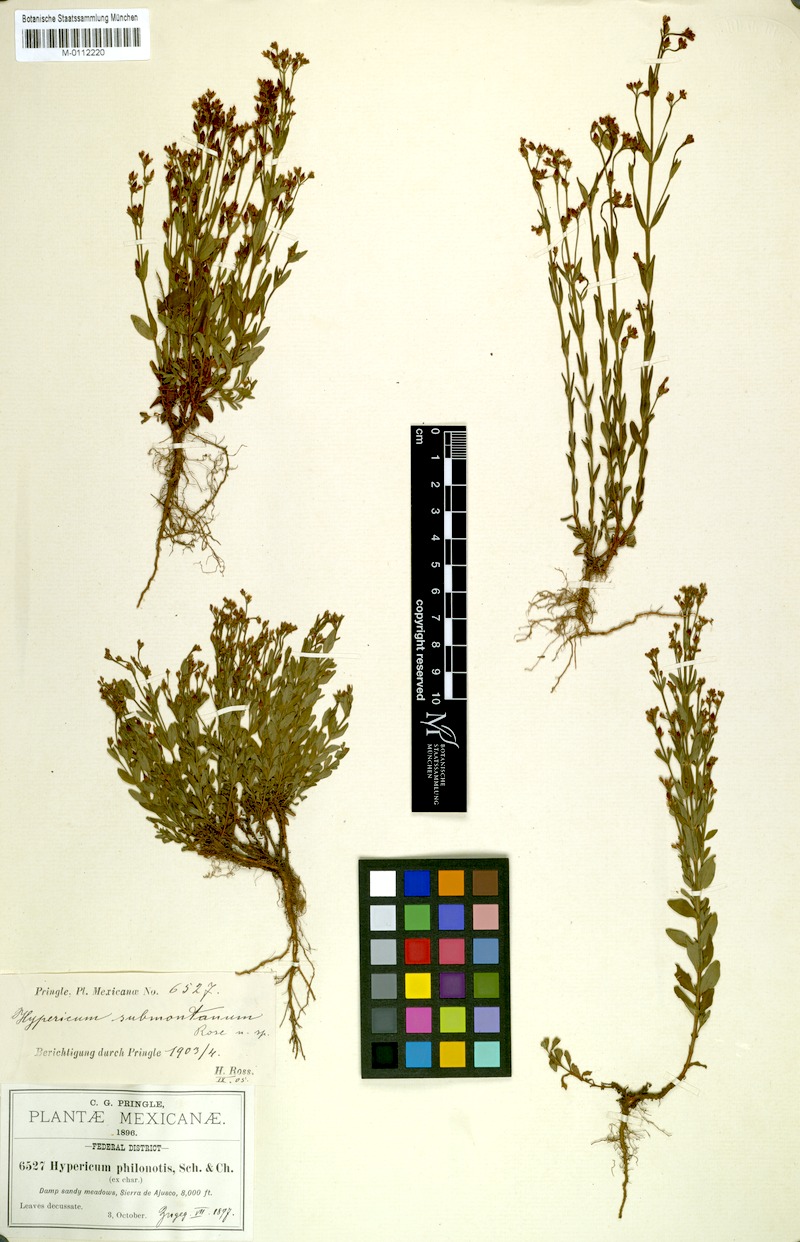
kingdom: Plantae
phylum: Tracheophyta
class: Magnoliopsida
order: Malpighiales
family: Hypericaceae
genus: Hypericum
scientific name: Hypericum philonotis
